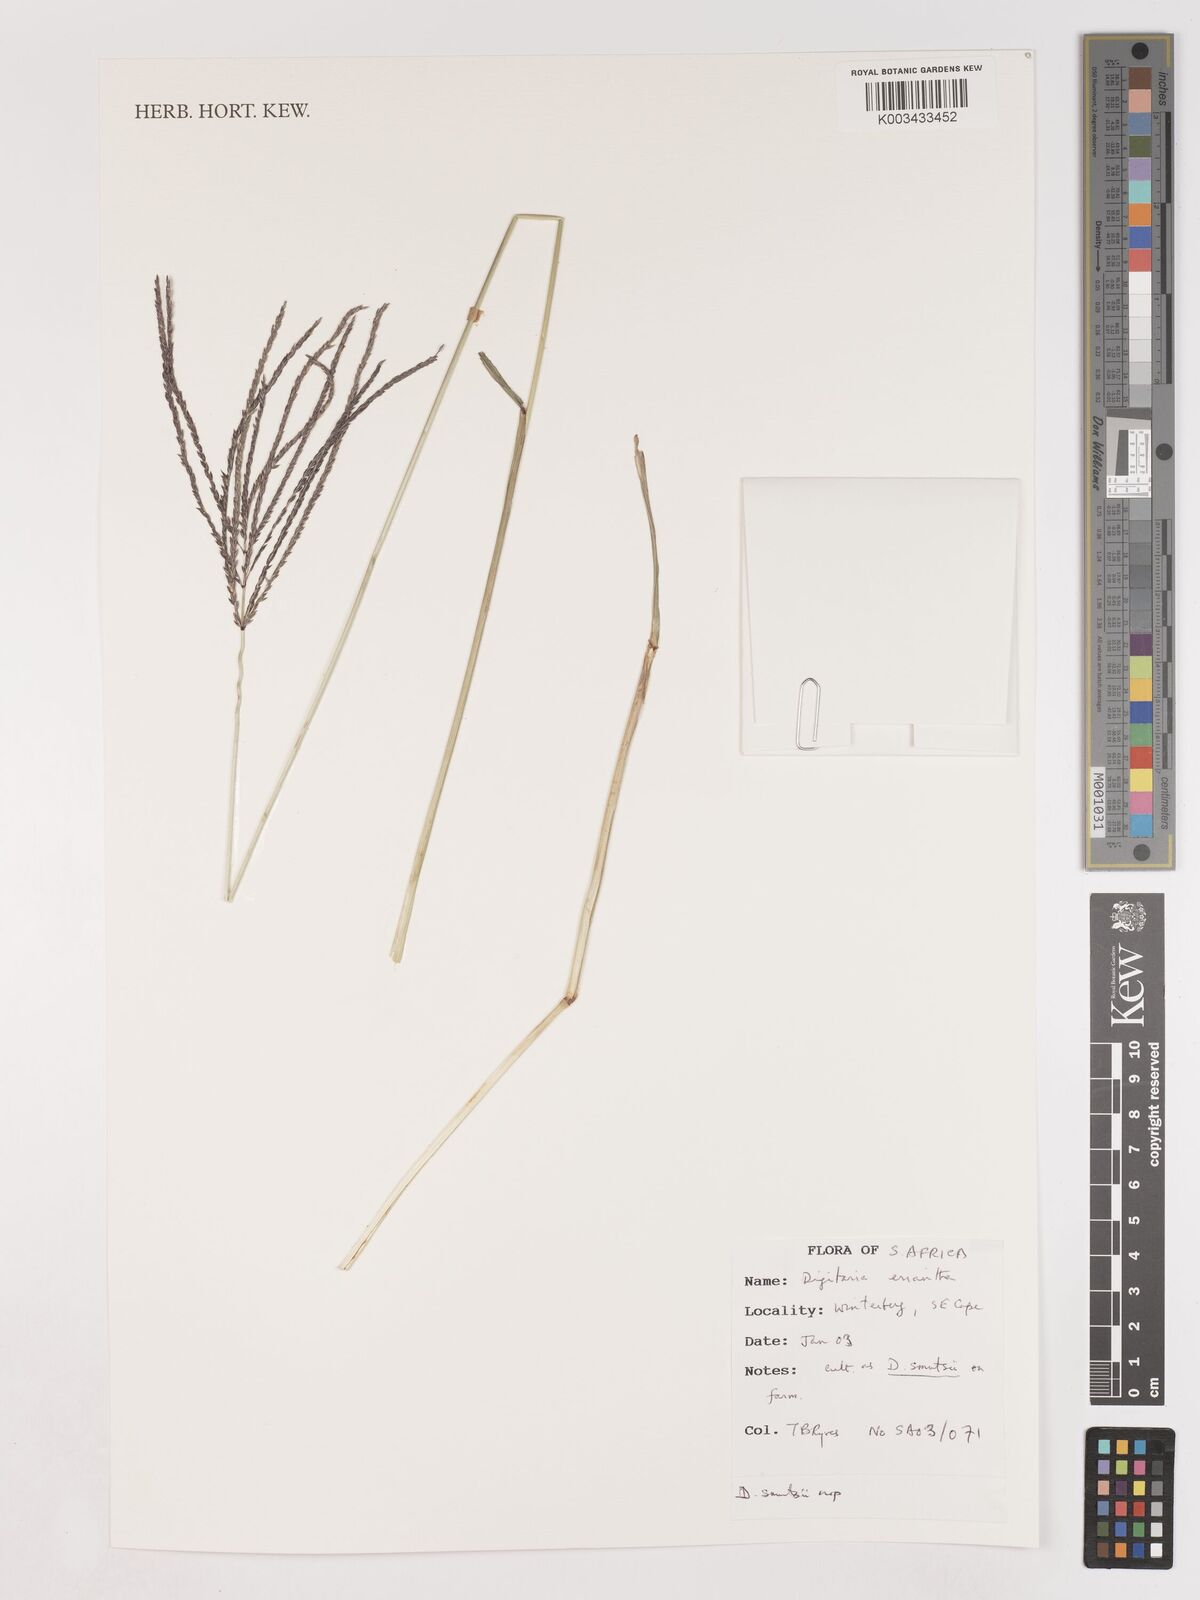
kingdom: Plantae
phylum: Tracheophyta
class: Liliopsida
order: Poales
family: Poaceae
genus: Digitaria
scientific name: Digitaria eriantha
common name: Digitgrass
